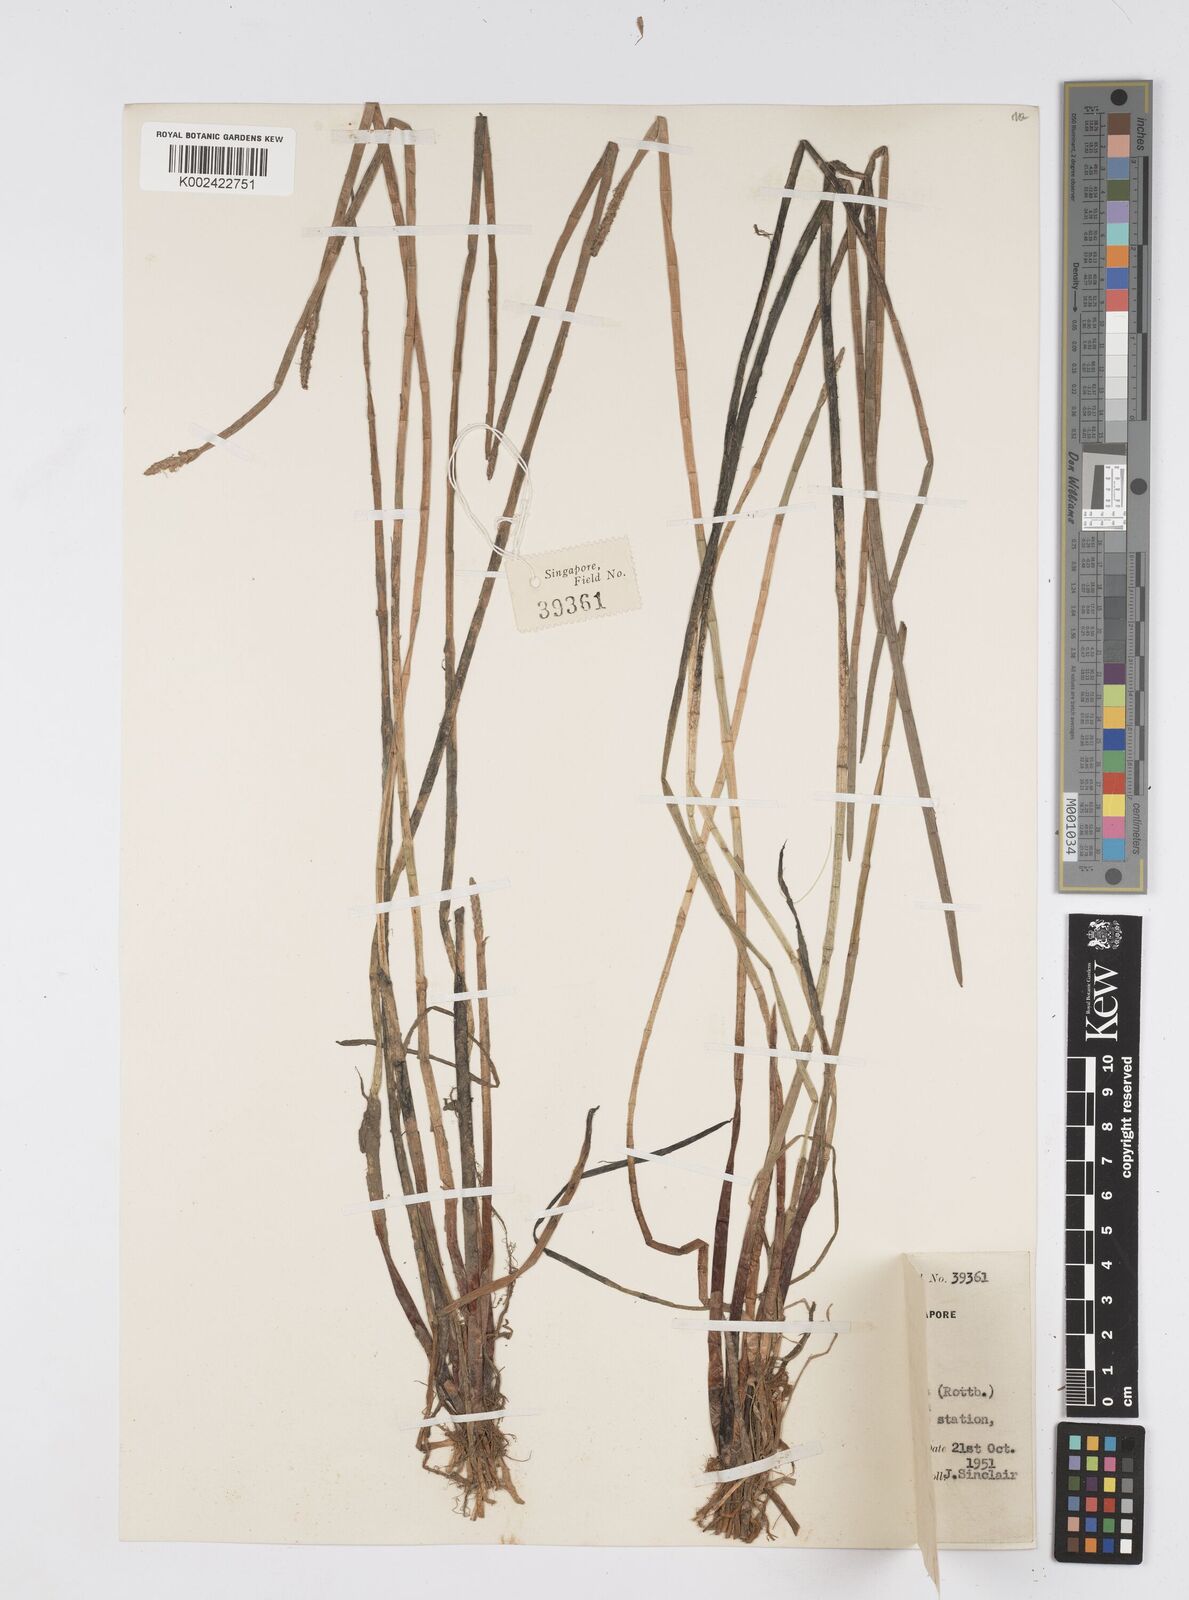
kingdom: Plantae
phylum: Tracheophyta
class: Liliopsida
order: Poales
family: Cyperaceae
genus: Eleocharis
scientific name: Eleocharis dulcis
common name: Chinese water chestnut
